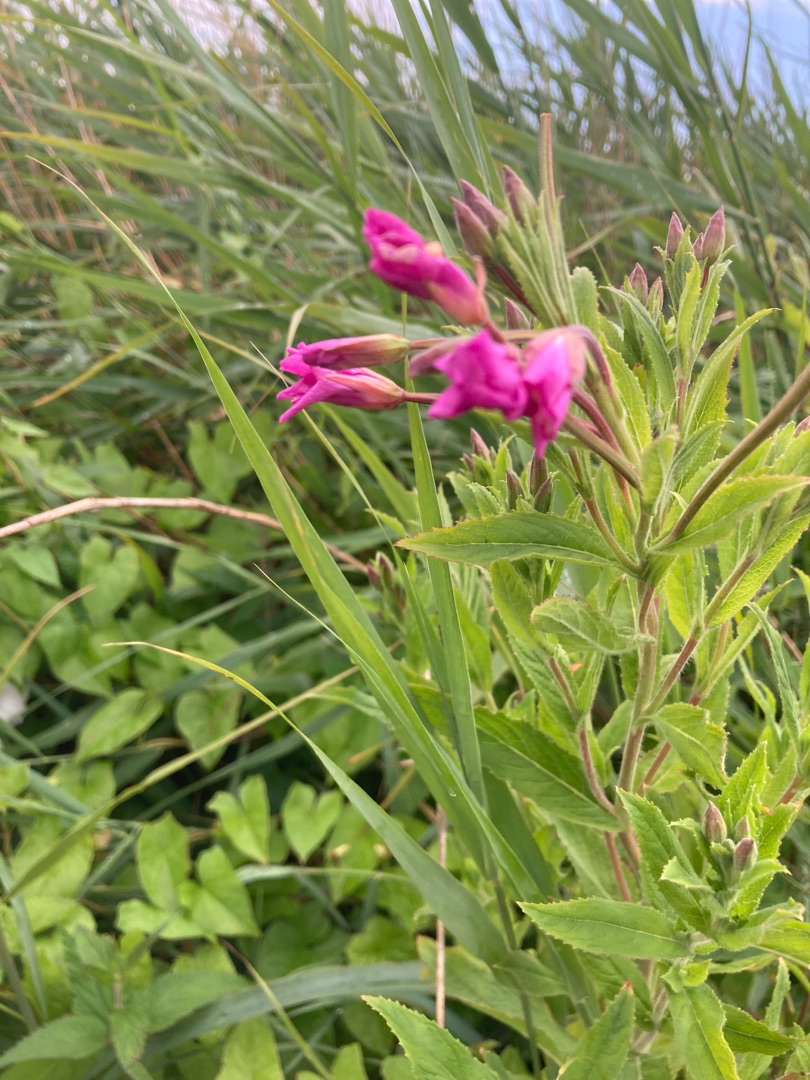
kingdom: Plantae
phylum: Tracheophyta
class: Magnoliopsida
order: Myrtales
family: Onagraceae
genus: Epilobium
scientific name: Epilobium hirsutum
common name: Lådden dueurt
